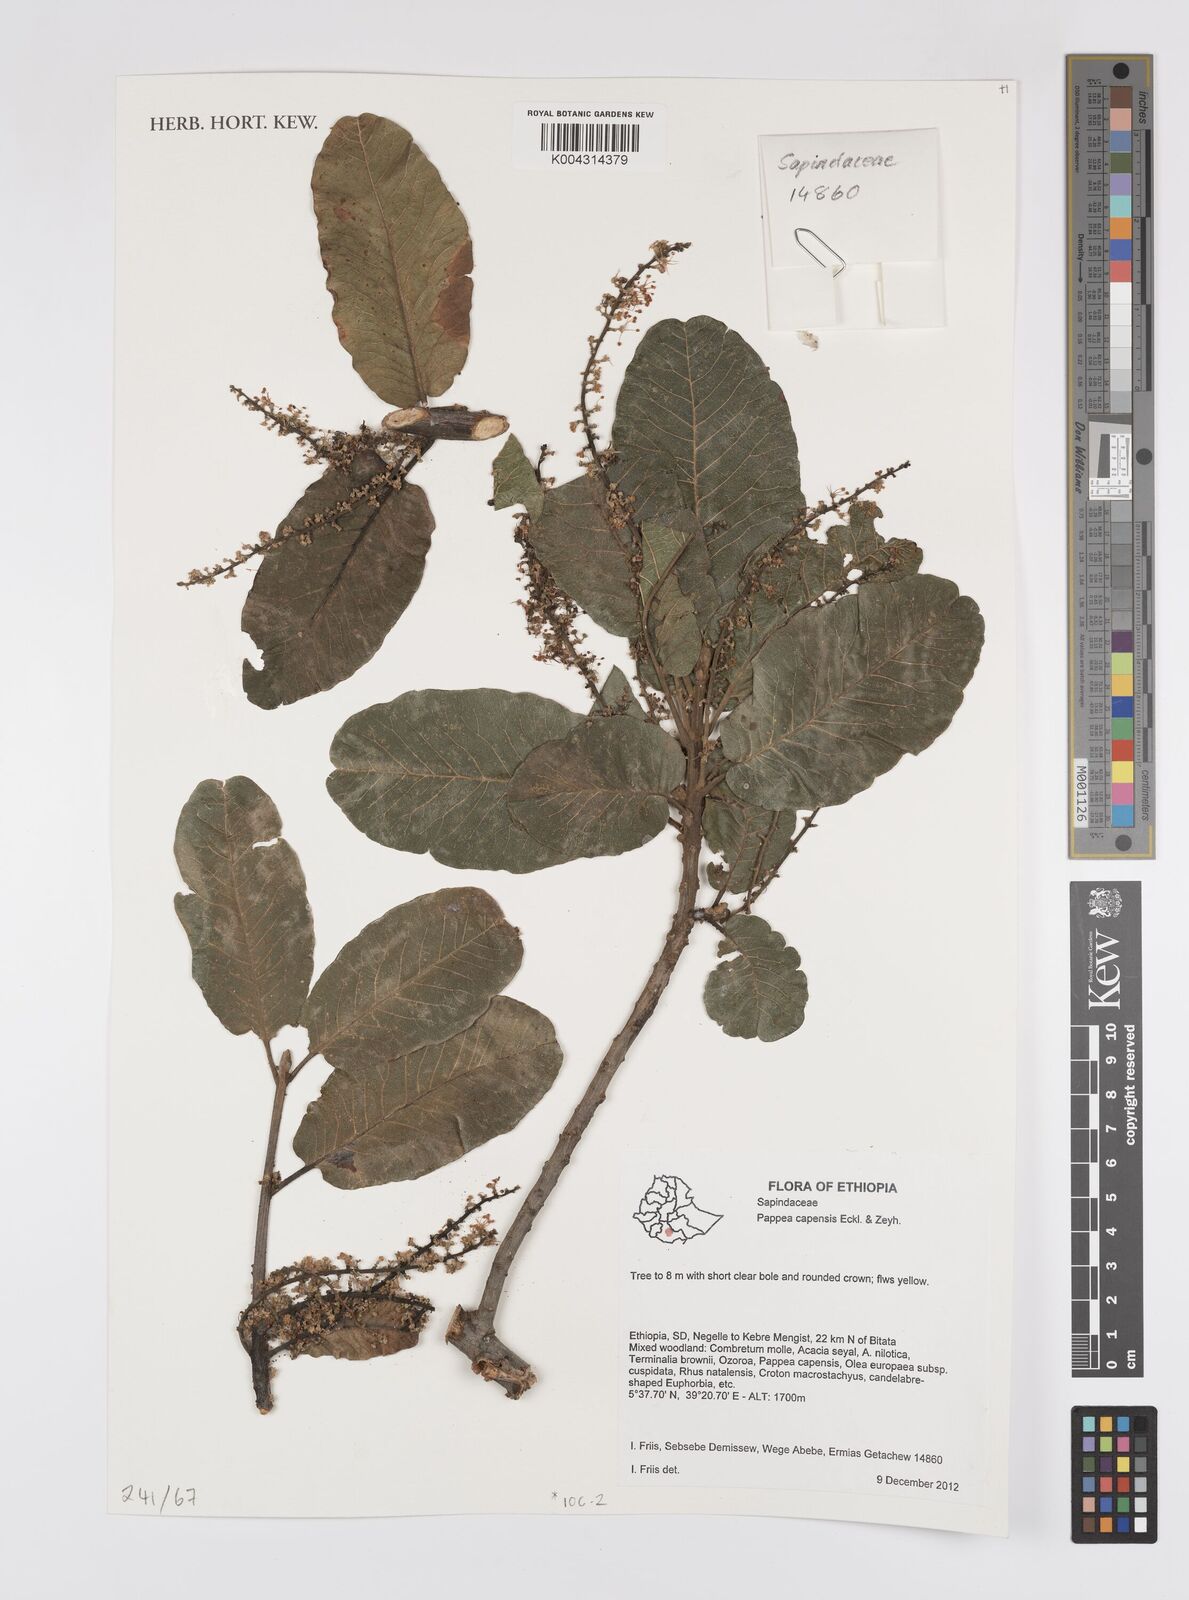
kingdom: Plantae
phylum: Tracheophyta
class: Magnoliopsida
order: Sapindales
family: Sapindaceae
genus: Pappea
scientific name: Pappea capensis
